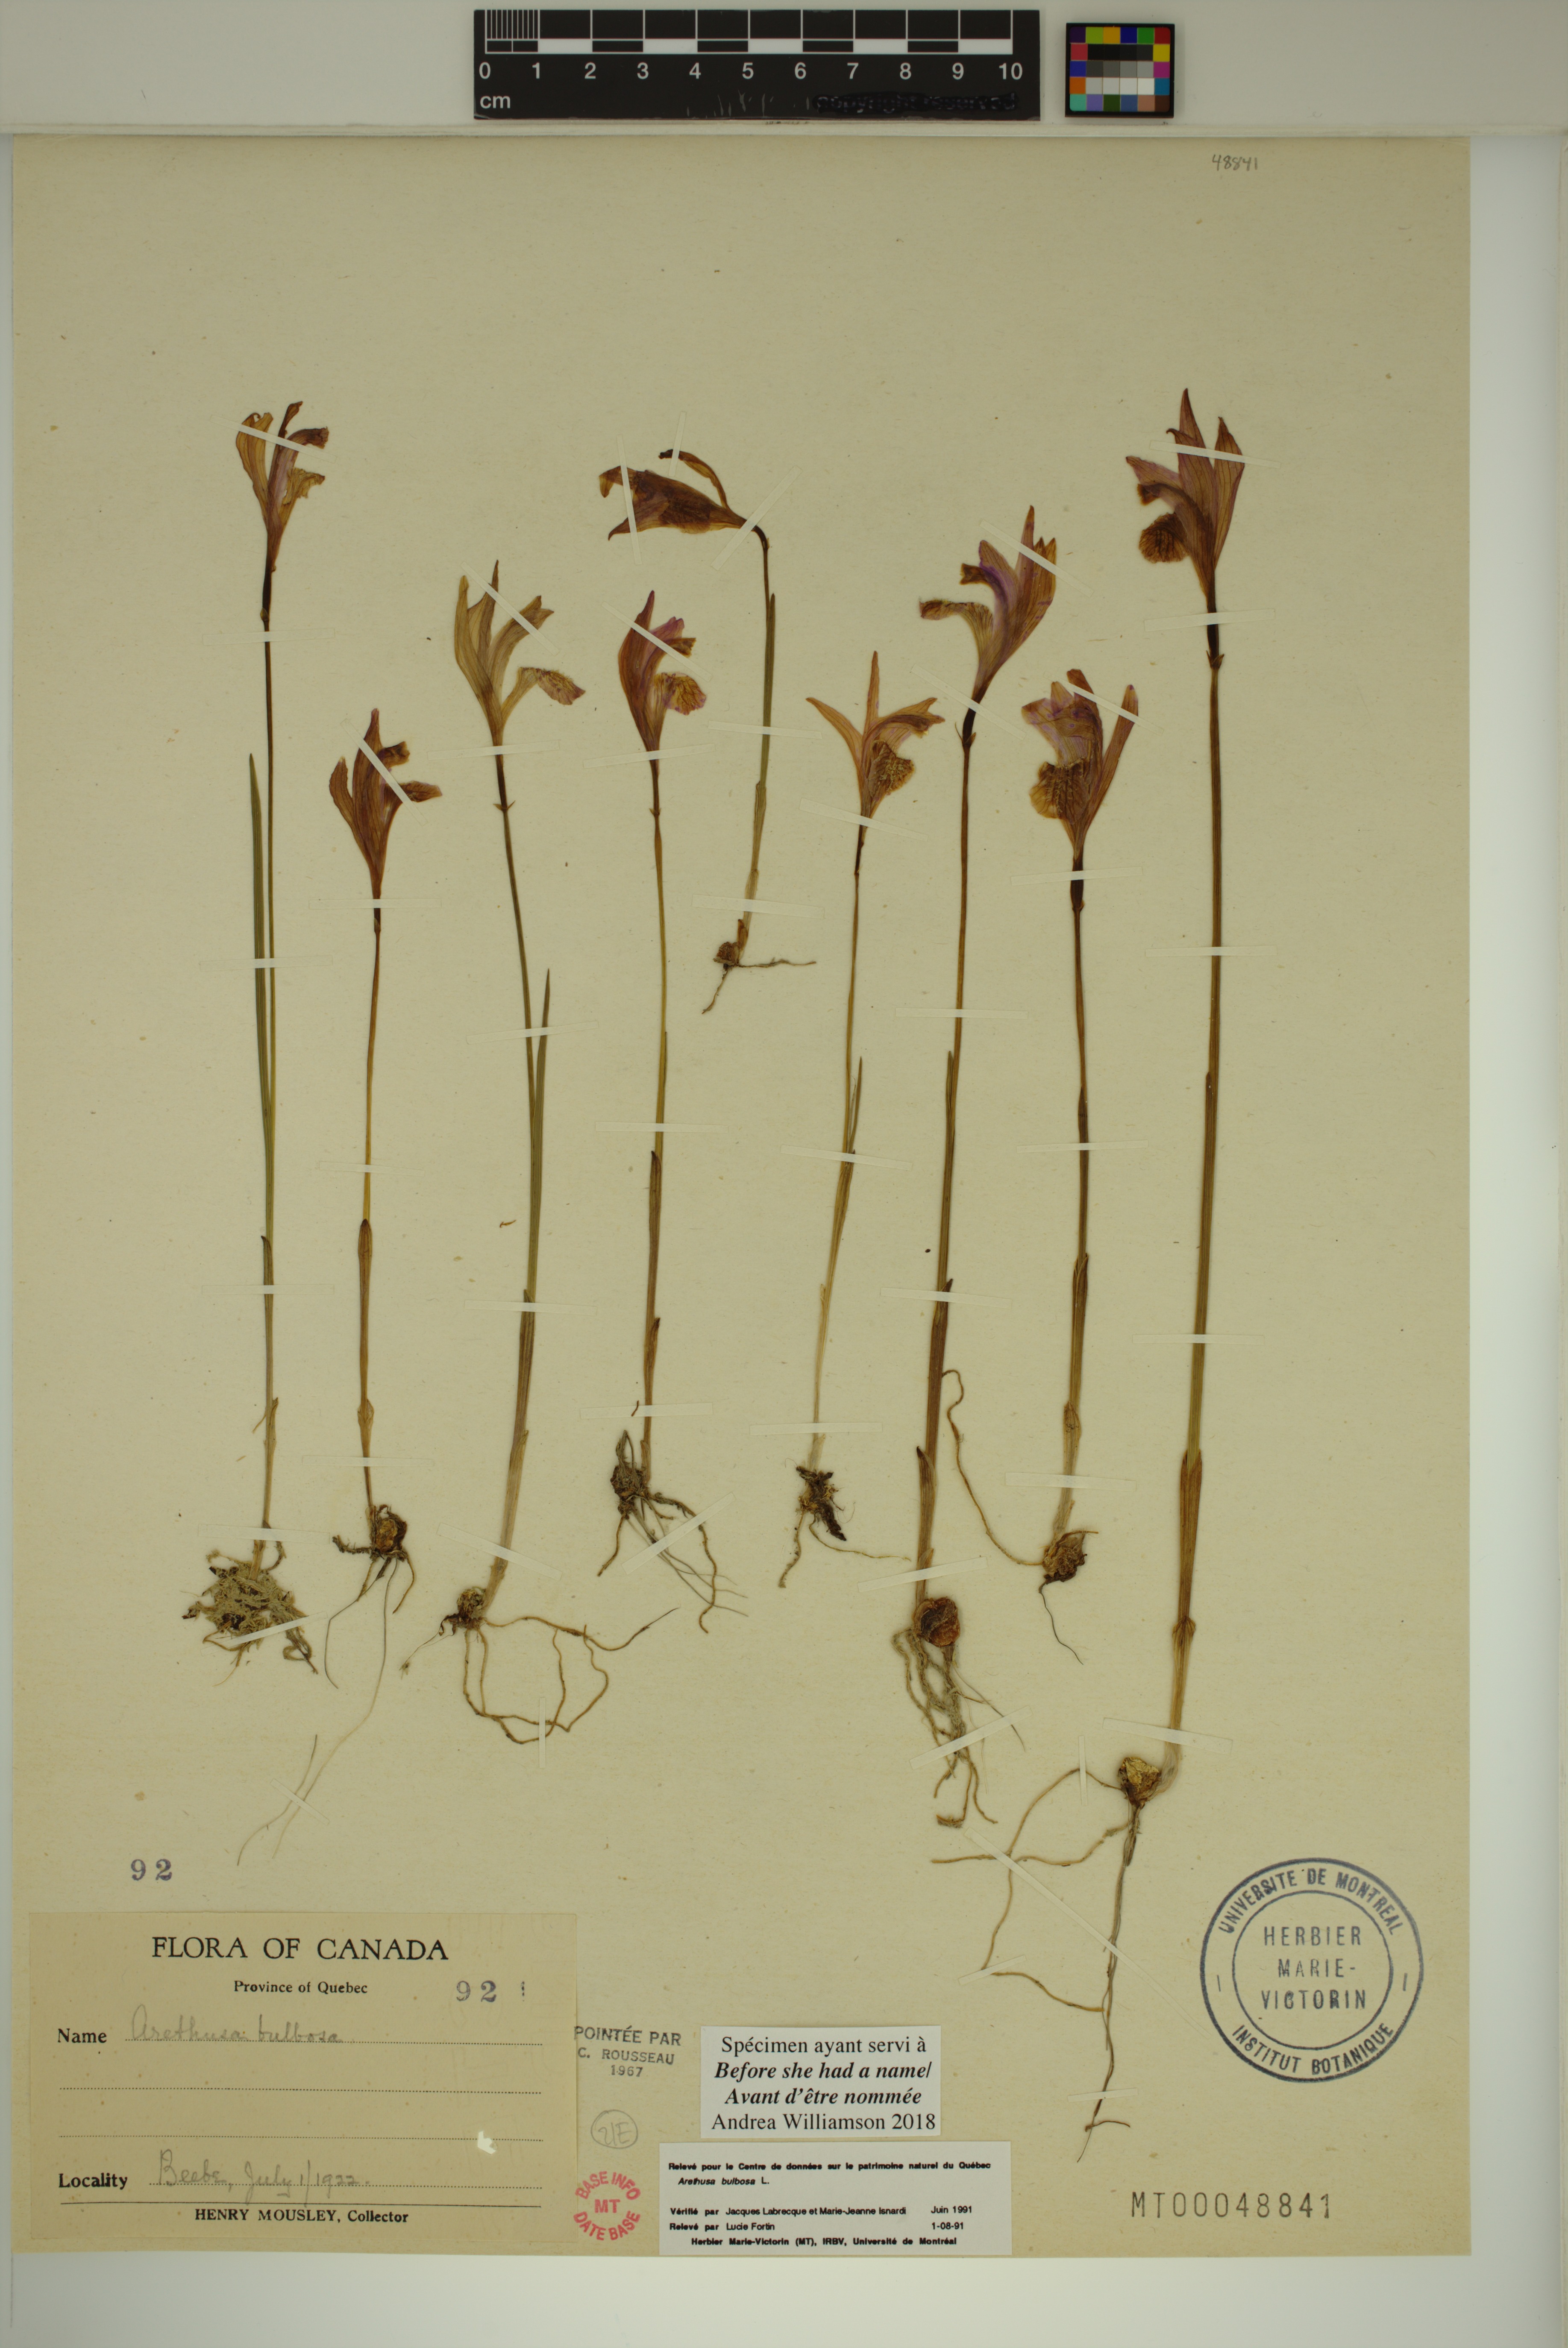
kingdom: Plantae
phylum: Tracheophyta
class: Liliopsida
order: Asparagales
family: Orchidaceae
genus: Arethusa
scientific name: Arethusa bulbosa
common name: Arethusa
